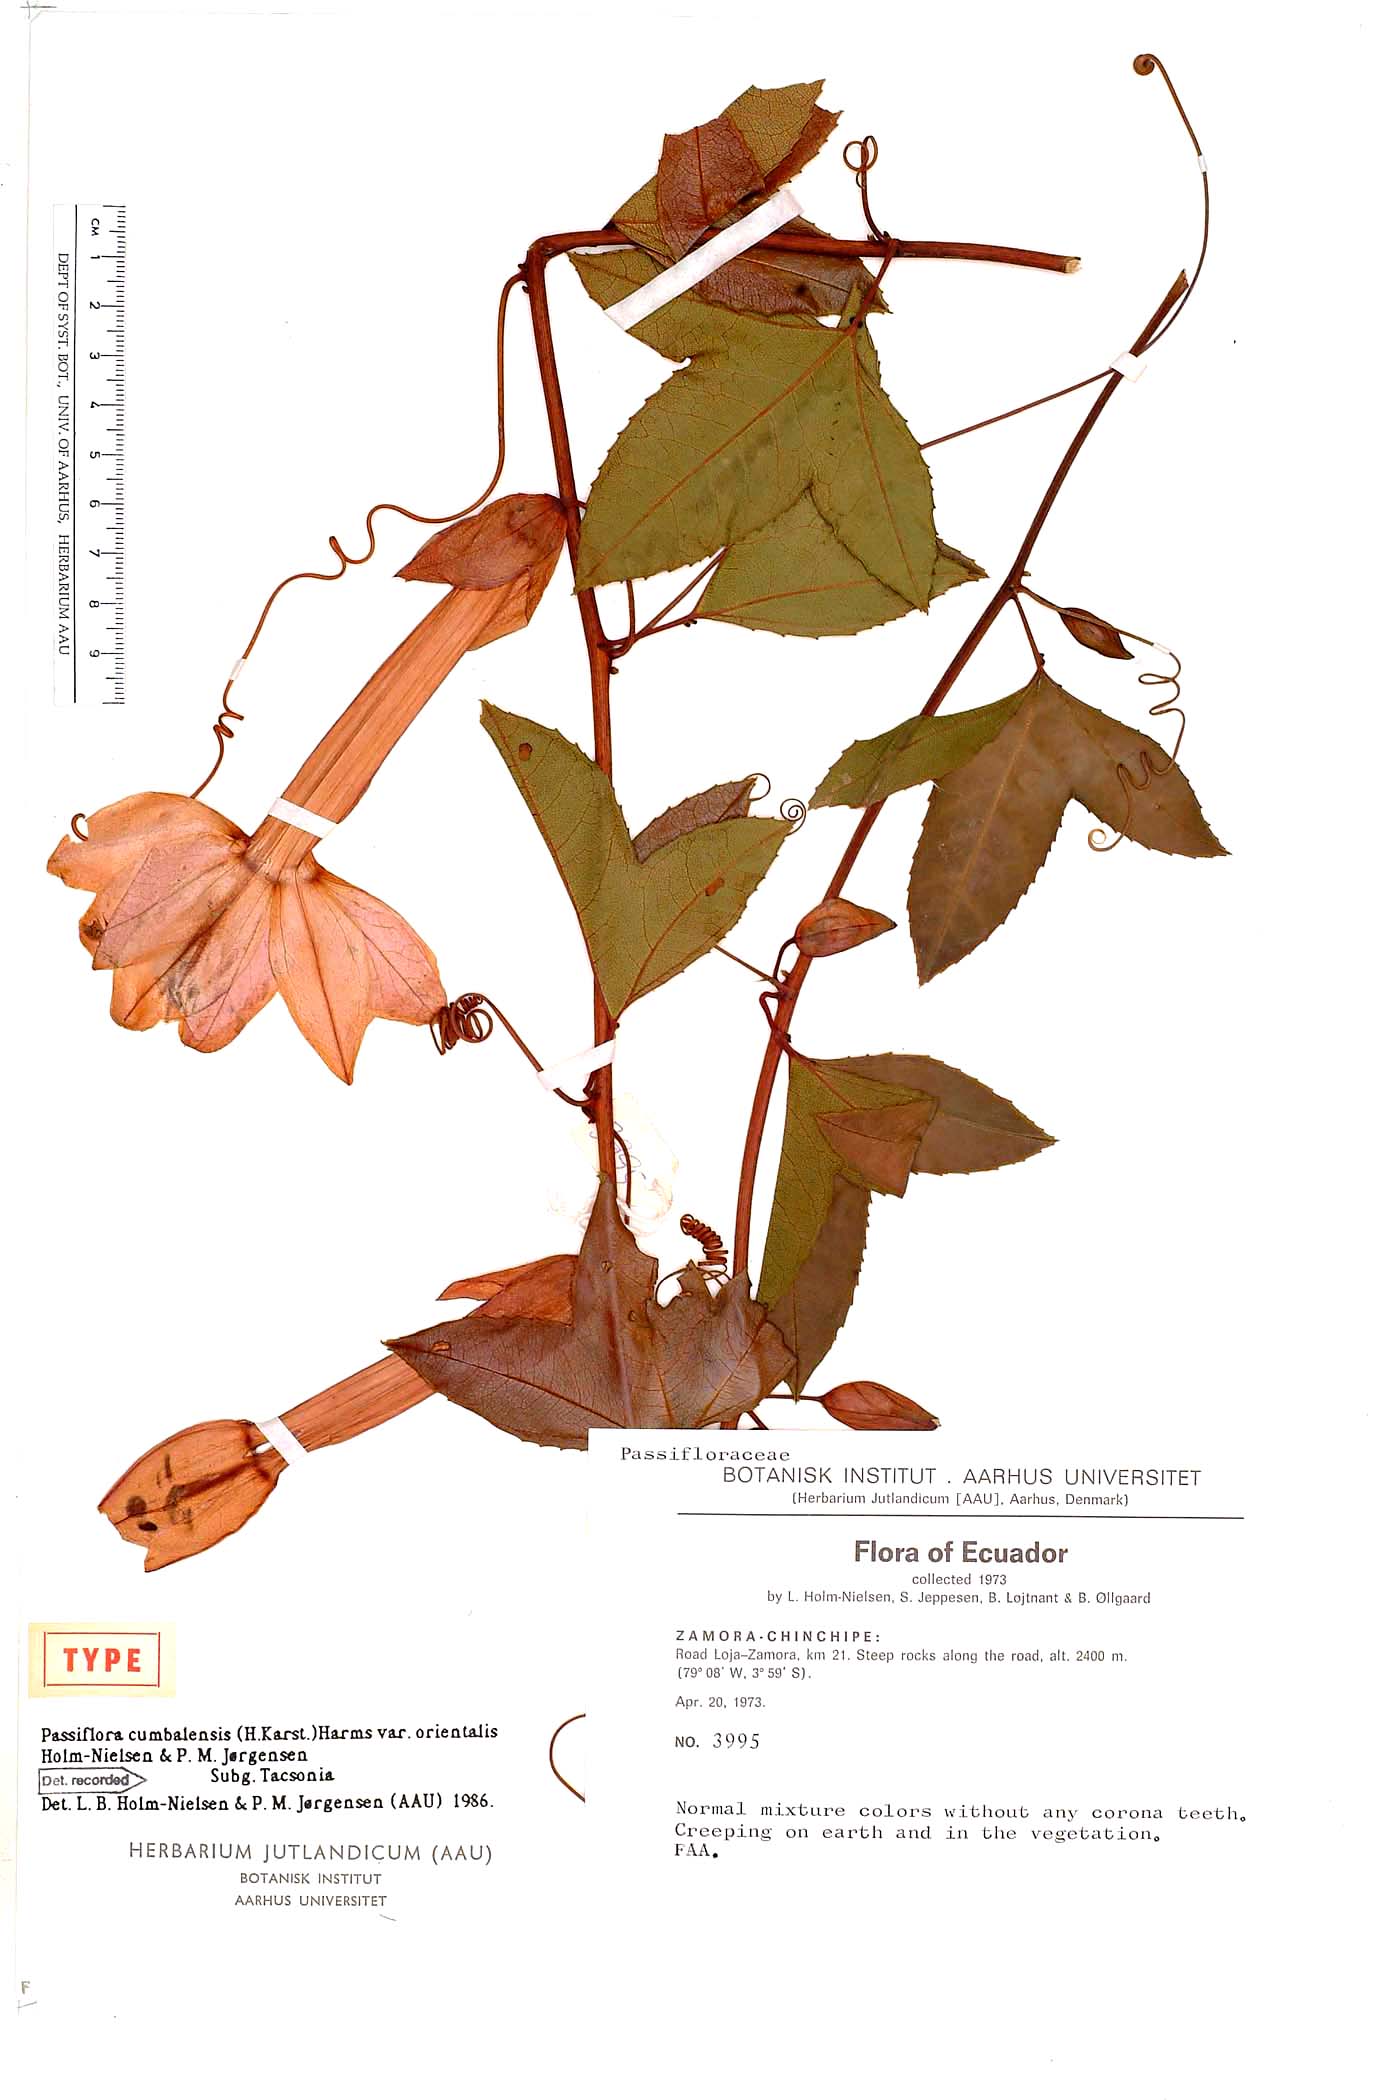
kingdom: Plantae
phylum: Tracheophyta
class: Magnoliopsida
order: Malpighiales
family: Passifloraceae
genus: Passiflora
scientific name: Passiflora cumbalensis
